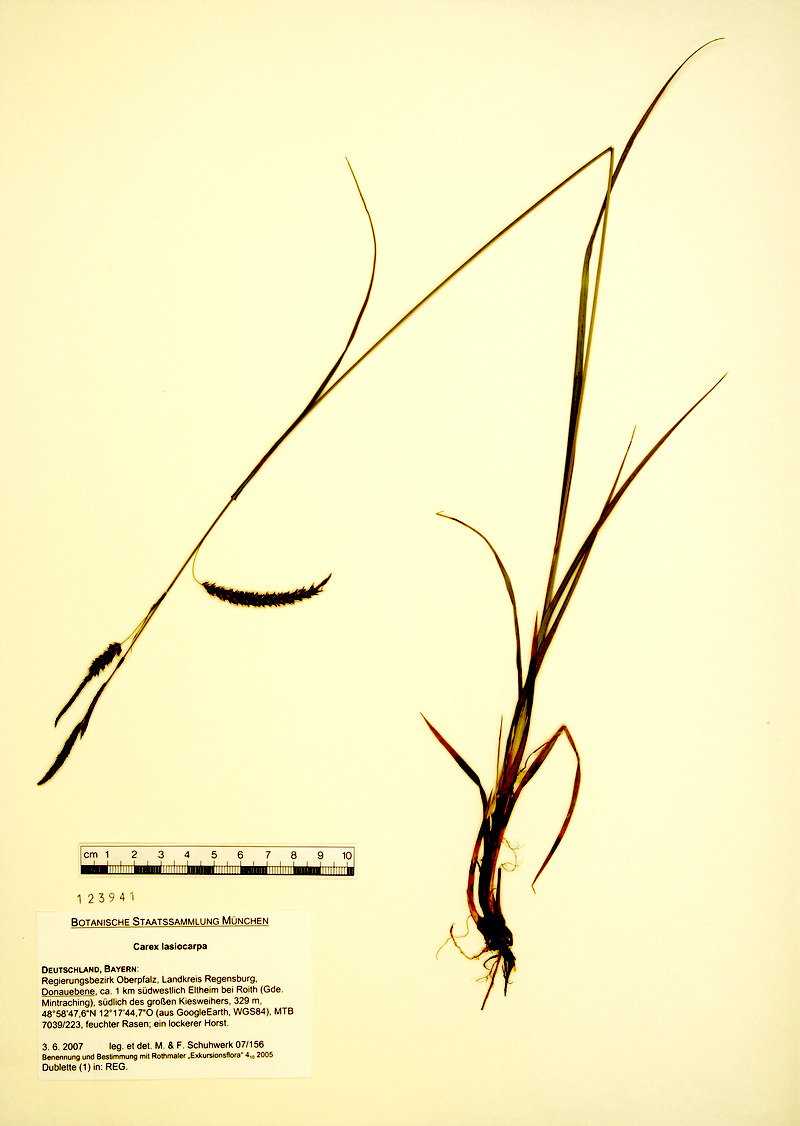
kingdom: Plantae
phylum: Tracheophyta
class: Liliopsida
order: Poales
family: Cyperaceae
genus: Carex
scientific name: Carex lasiocarpa
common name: Slender sedge
